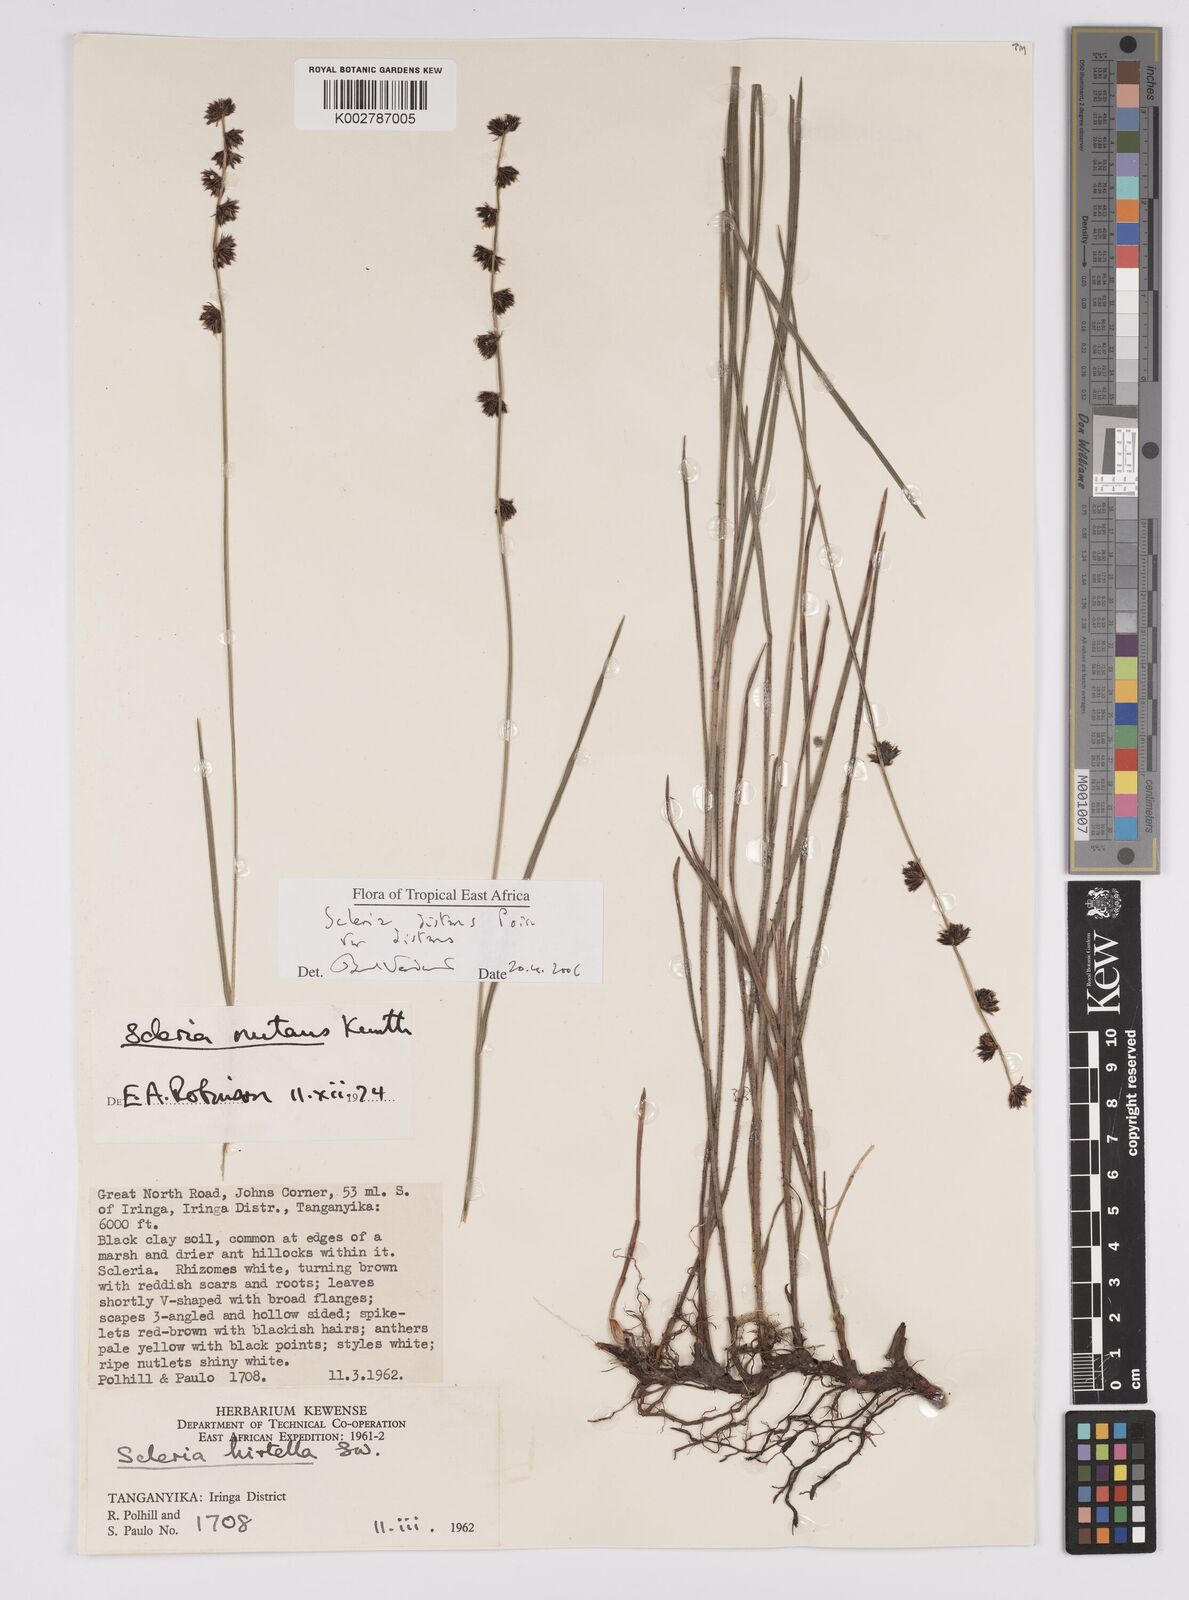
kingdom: Plantae
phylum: Tracheophyta
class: Liliopsida
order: Poales
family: Cyperaceae
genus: Scleria
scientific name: Scleria distans
